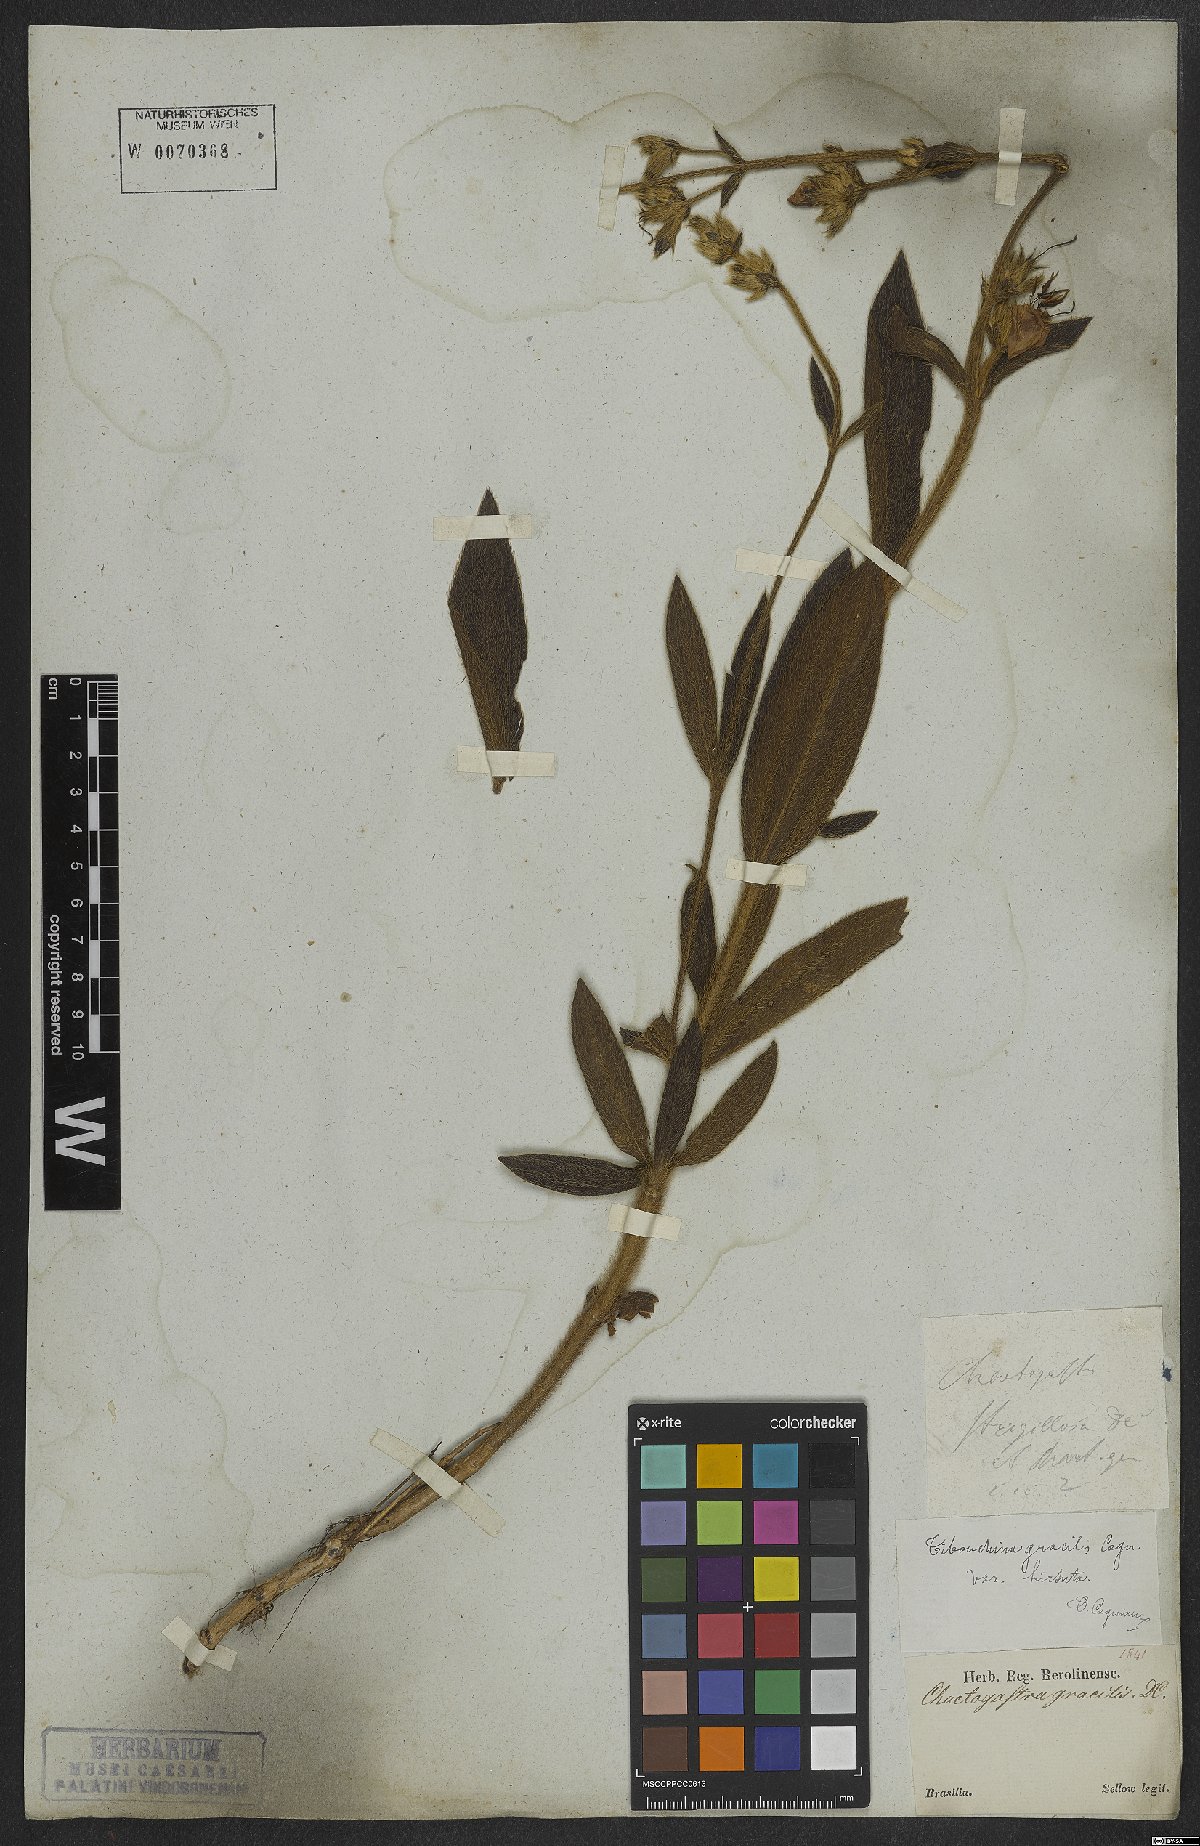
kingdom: Plantae
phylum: Tracheophyta
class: Magnoliopsida
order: Myrtales
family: Melastomataceae
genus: Chaetogastra
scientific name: Chaetogastra gracilis
